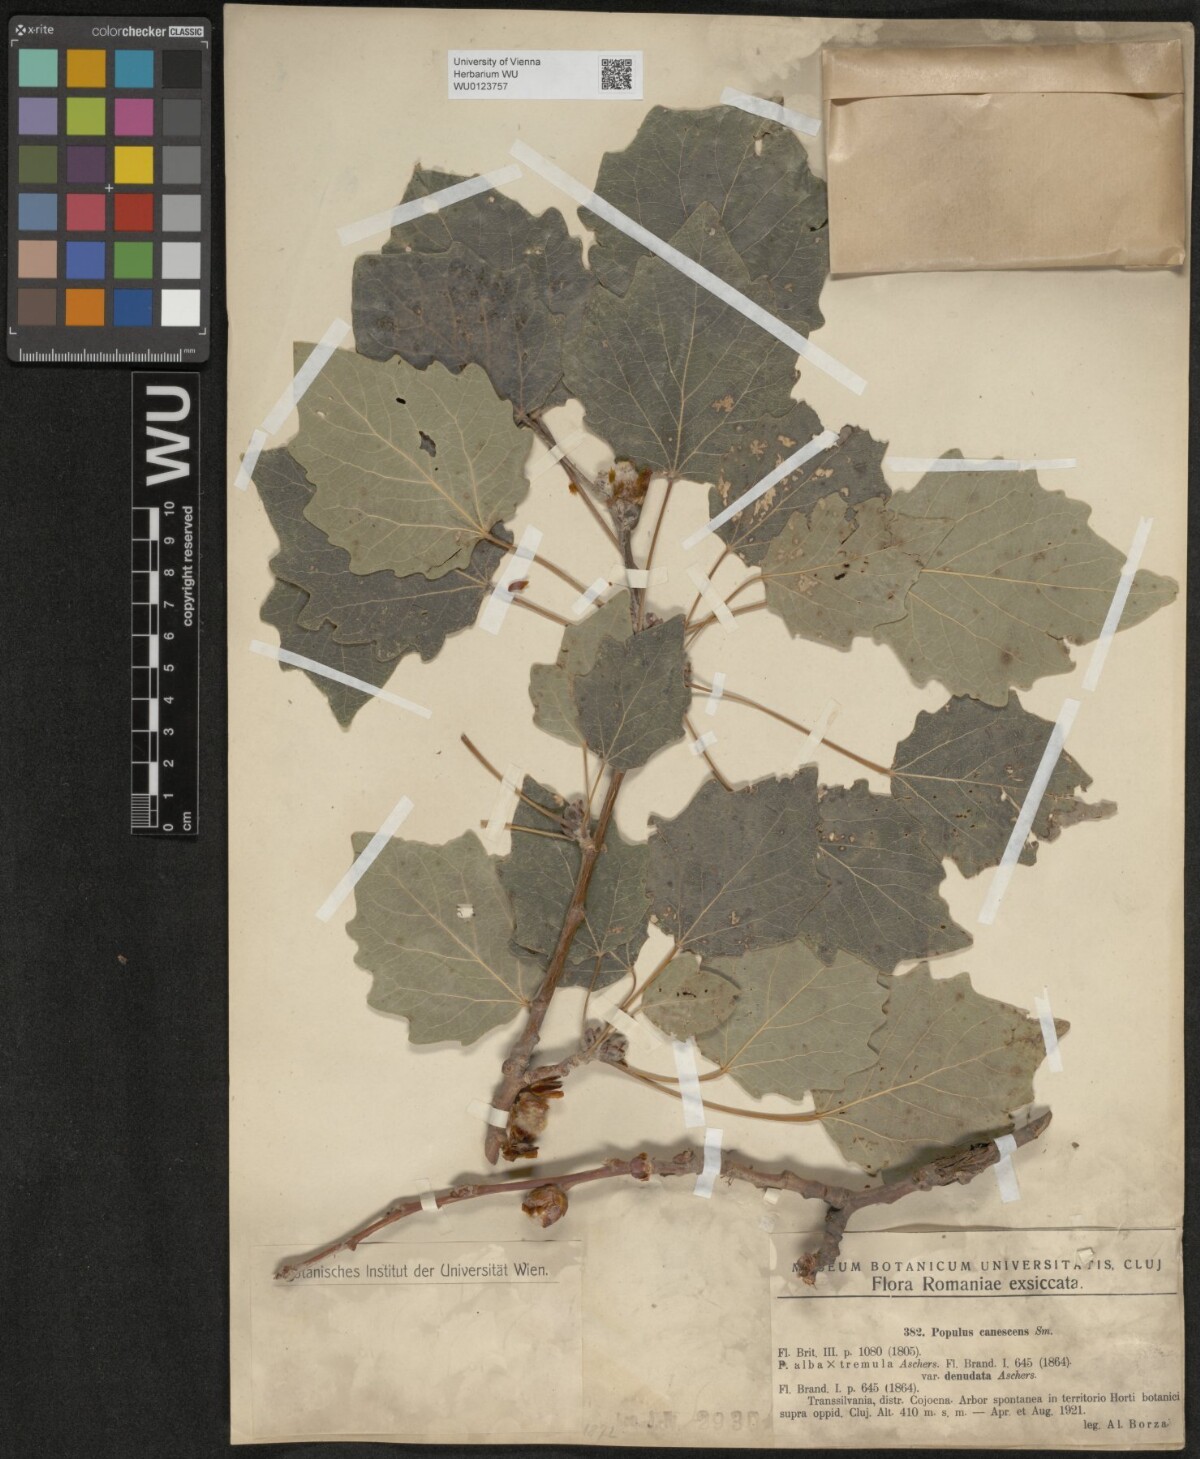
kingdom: Plantae
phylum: Tracheophyta
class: Magnoliopsida
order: Malpighiales
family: Salicaceae
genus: Populus
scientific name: Populus alba
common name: White poplar
